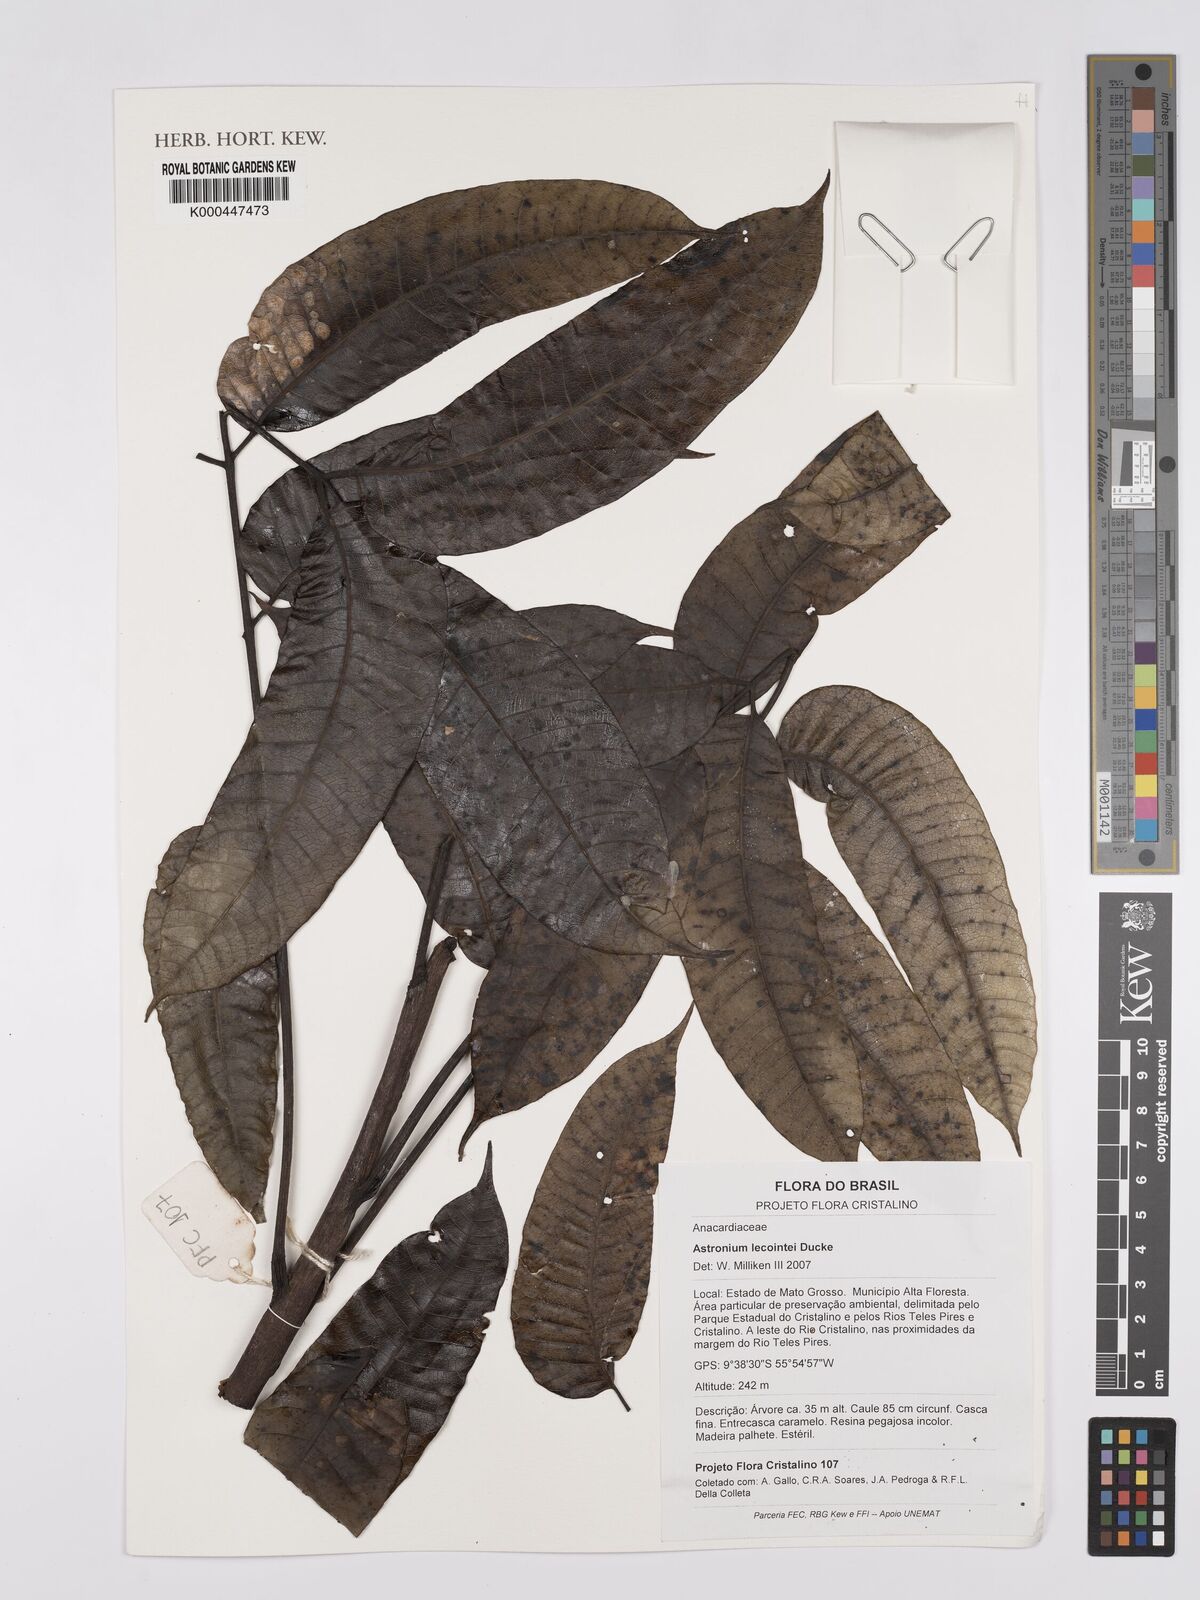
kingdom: Plantae
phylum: Tracheophyta
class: Magnoliopsida
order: Sapindales
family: Anacardiaceae
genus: Astronium
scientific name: Astronium lecointei
